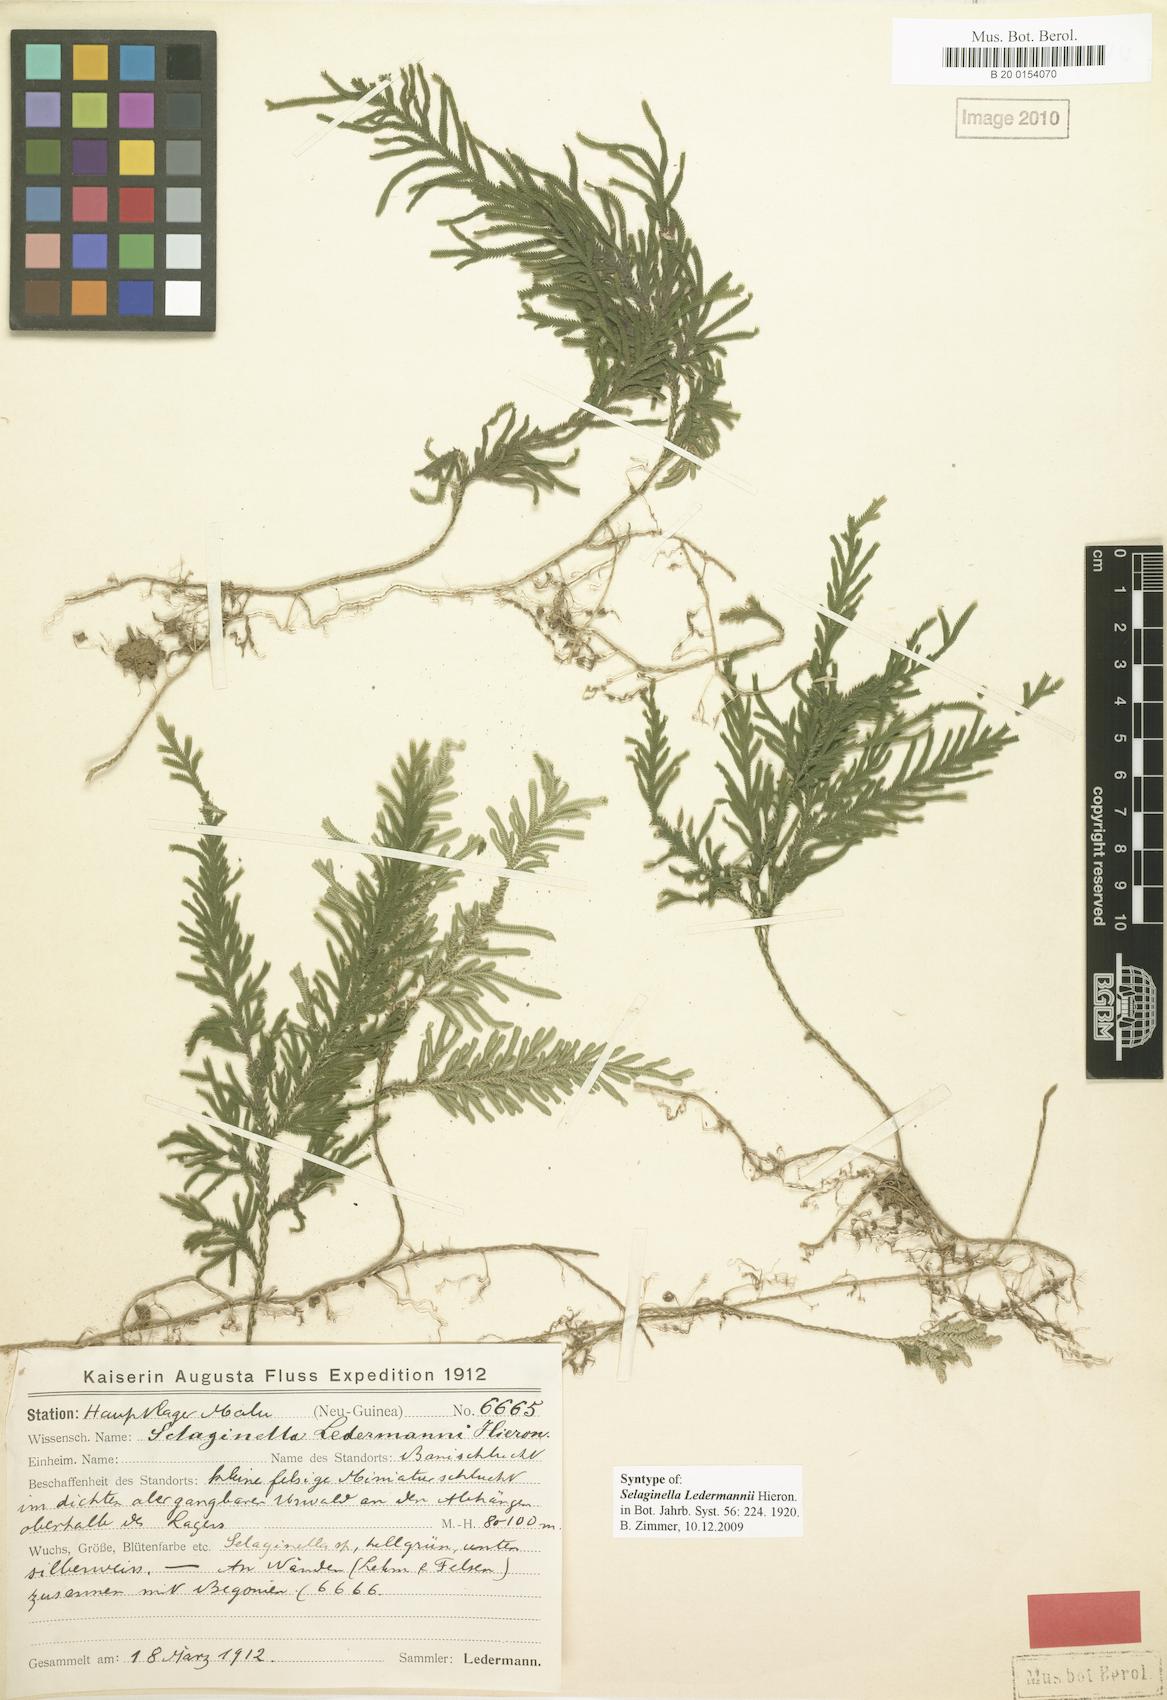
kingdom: Plantae
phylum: Tracheophyta
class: Lycopodiopsida
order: Selaginellales
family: Selaginellaceae
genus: Selaginella
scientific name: Selaginella ledermannii
